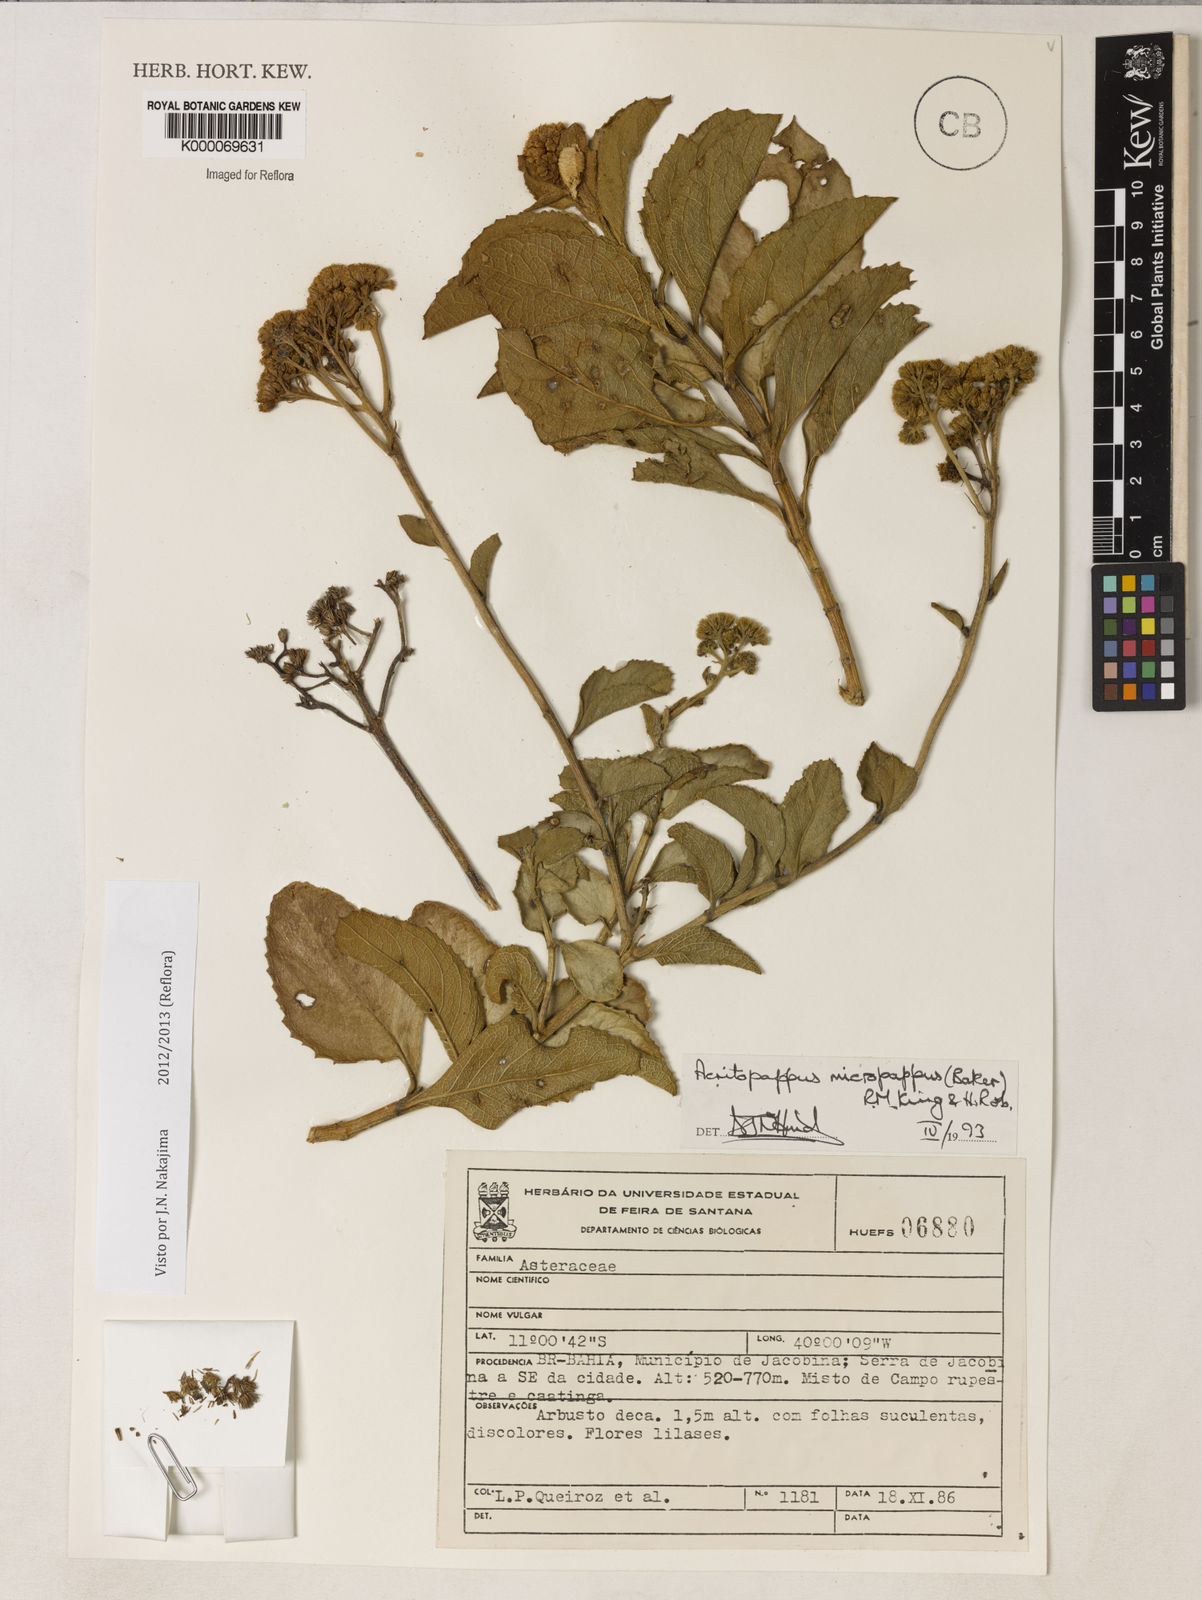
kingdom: Plantae
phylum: Tracheophyta
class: Magnoliopsida
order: Asterales
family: Asteraceae
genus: Acritopappus
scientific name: Acritopappus micropappus
